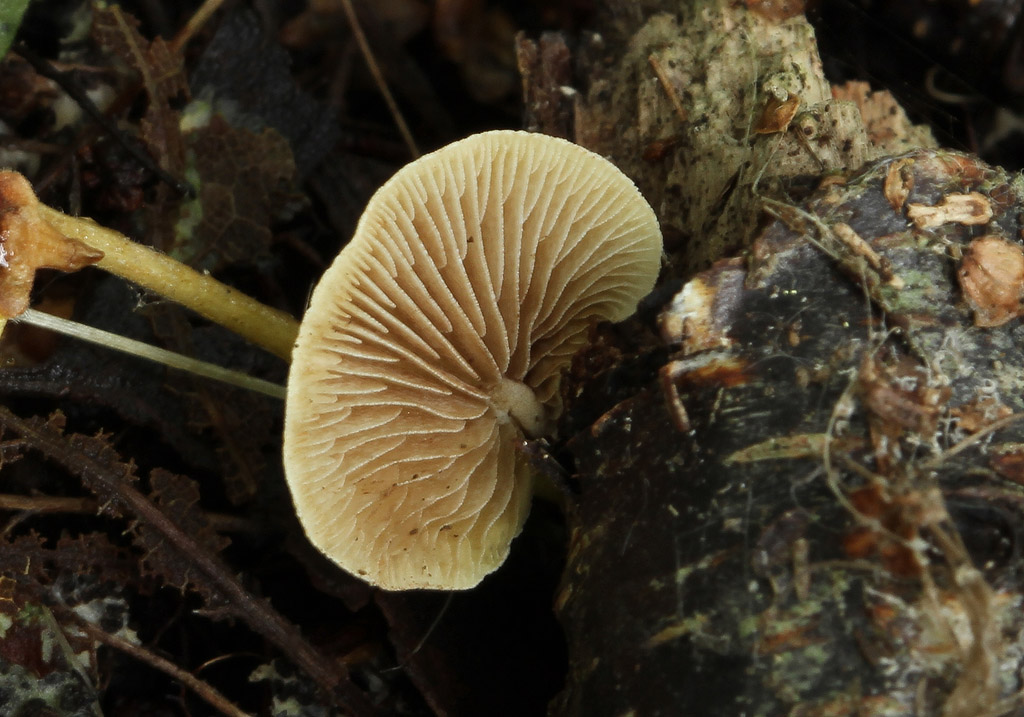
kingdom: Fungi
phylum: Basidiomycota
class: Agaricomycetes
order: Agaricales
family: Crepidotaceae
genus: Simocybe
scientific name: Simocybe haustellaris
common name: skæv skyggehat
